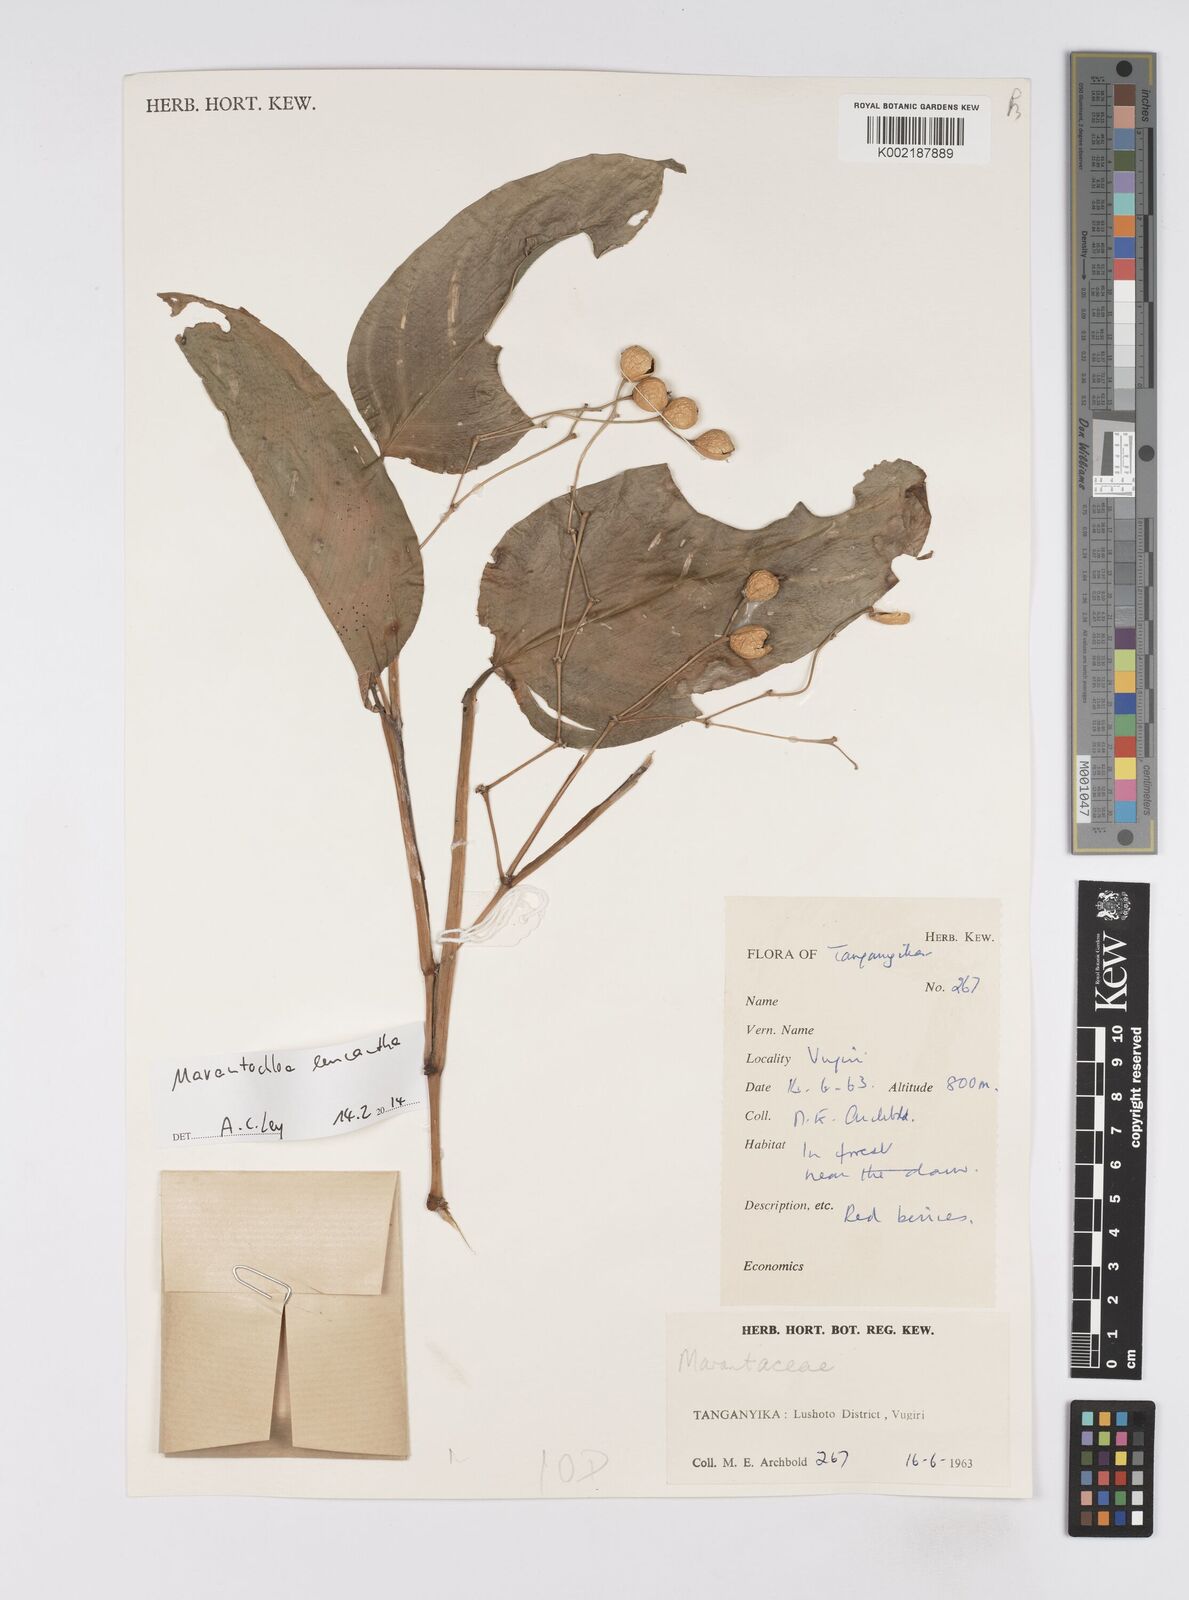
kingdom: Plantae
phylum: Tracheophyta
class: Liliopsida
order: Zingiberales
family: Marantaceae
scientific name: Marantaceae
